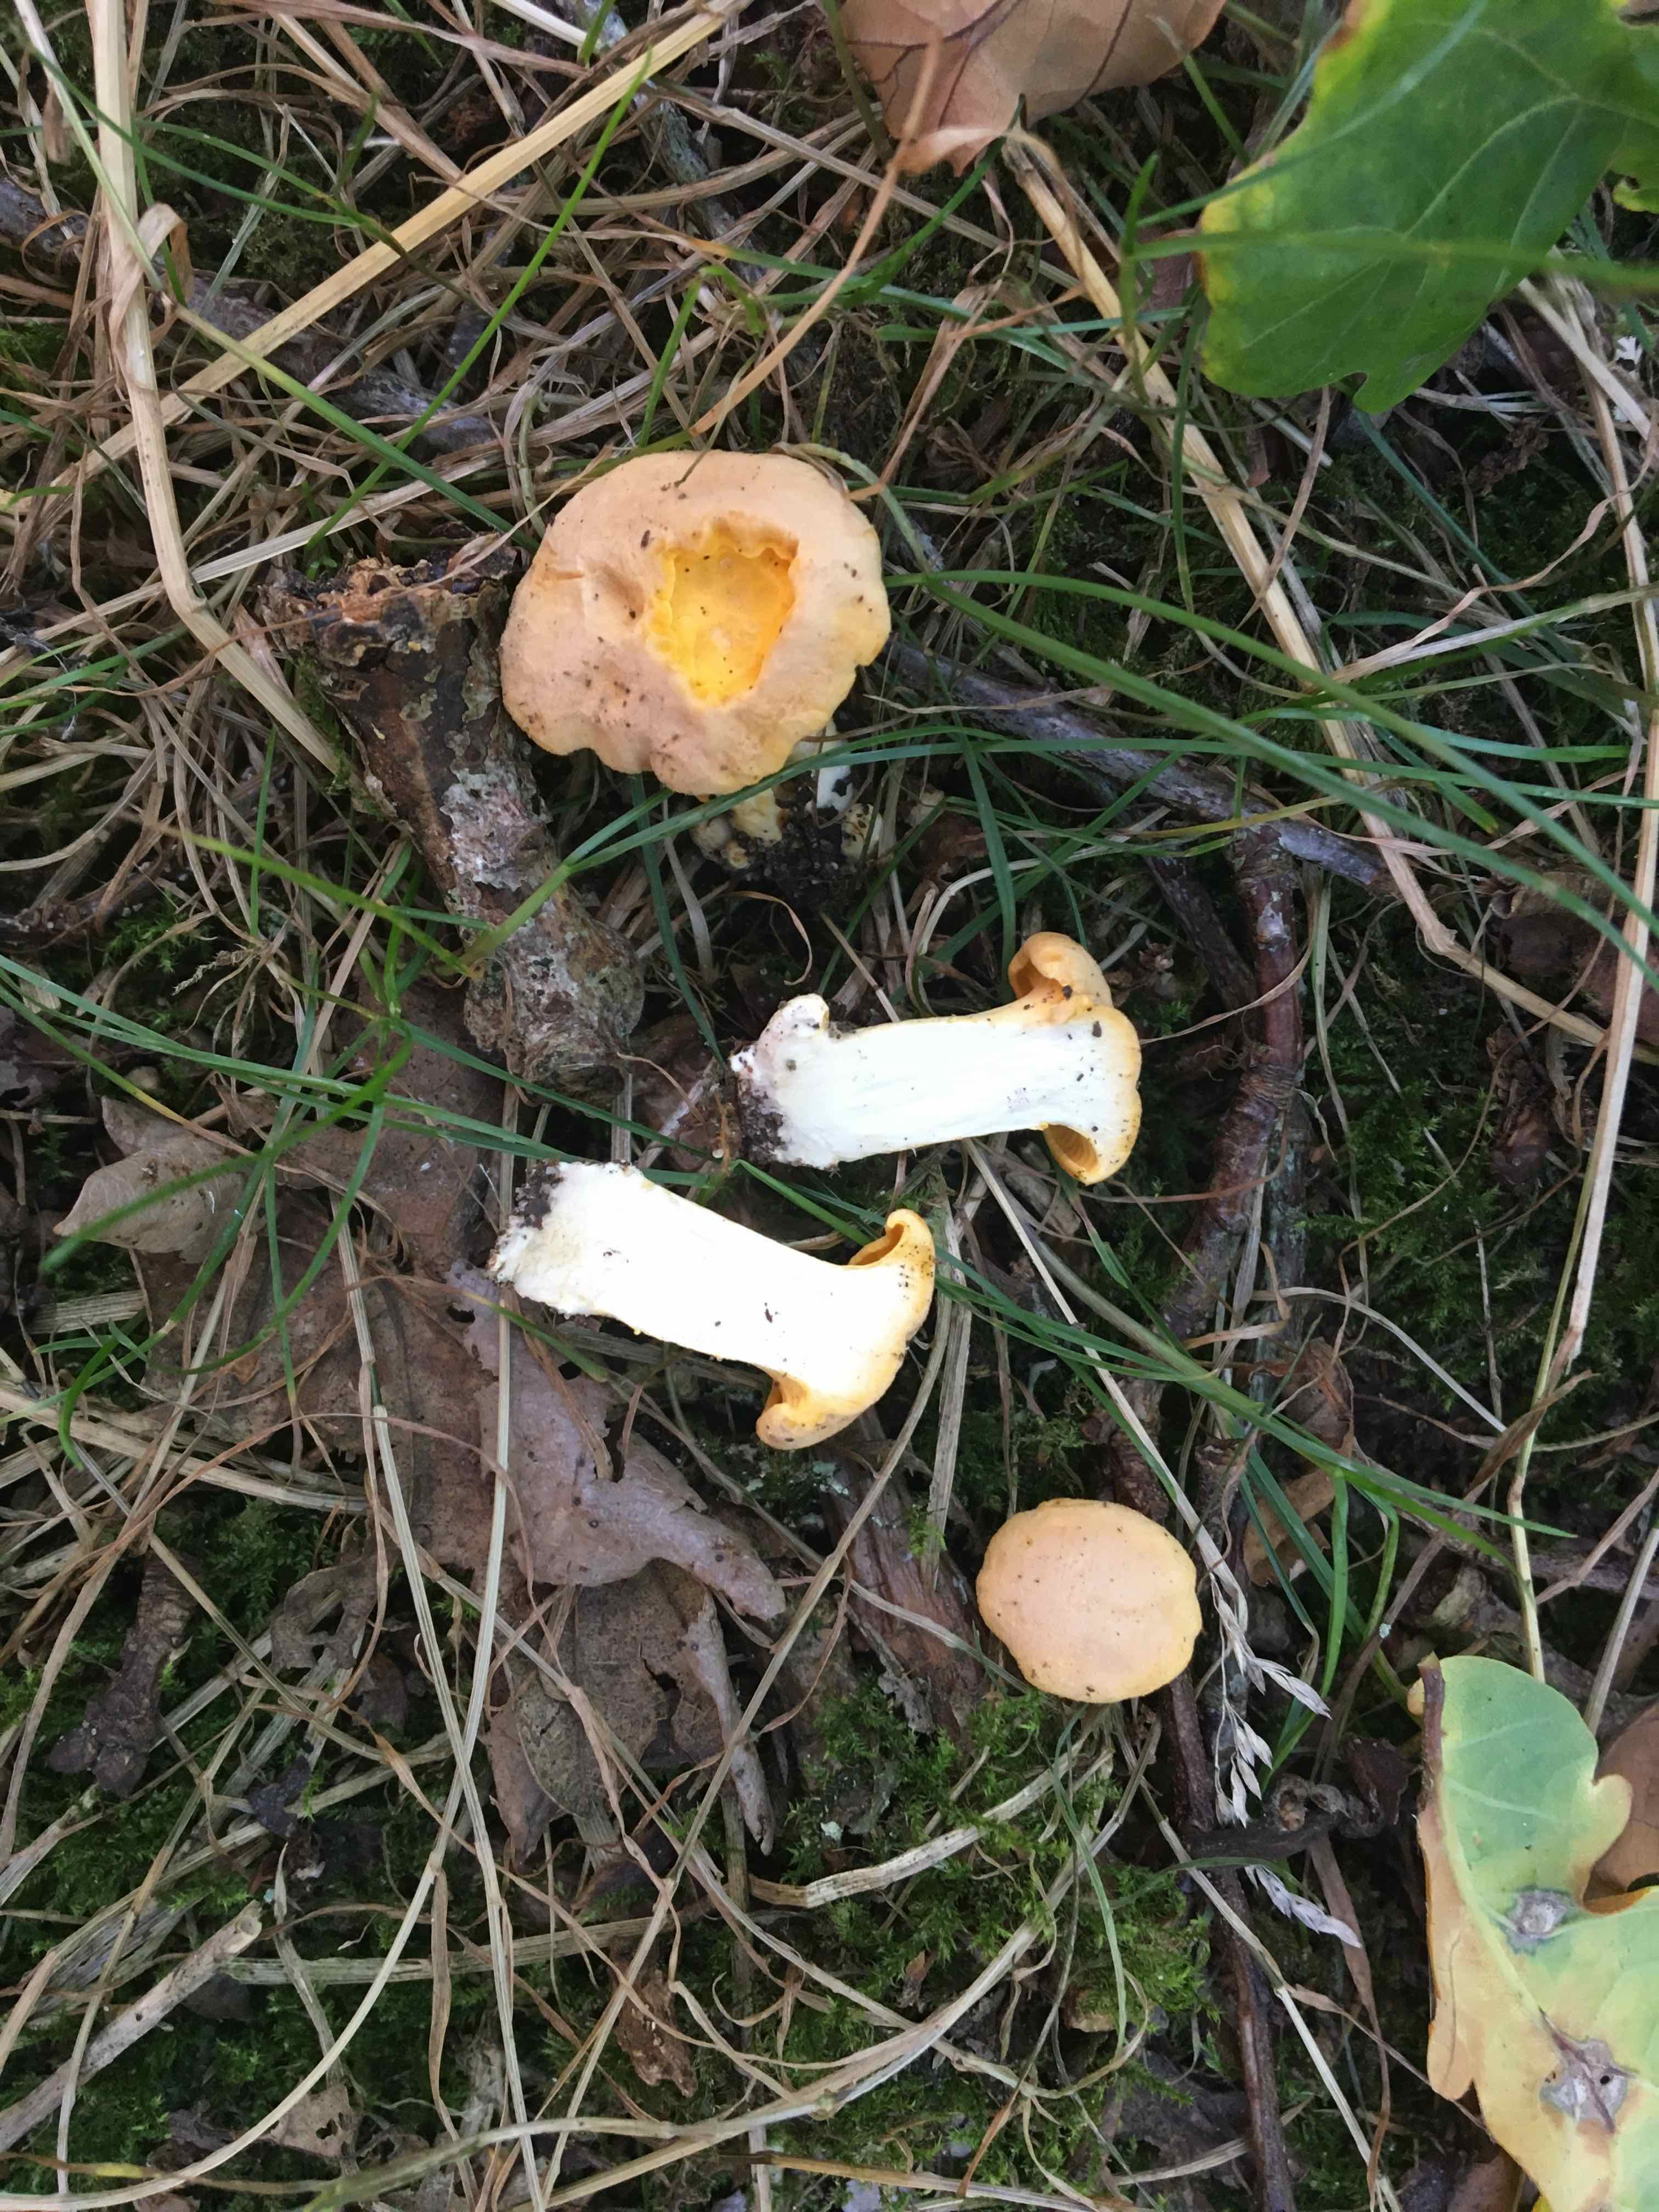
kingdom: Fungi
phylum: Basidiomycota
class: Agaricomycetes
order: Cantharellales
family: Hydnaceae
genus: Cantharellus
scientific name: Cantharellus pallens
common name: bleg kantarel
